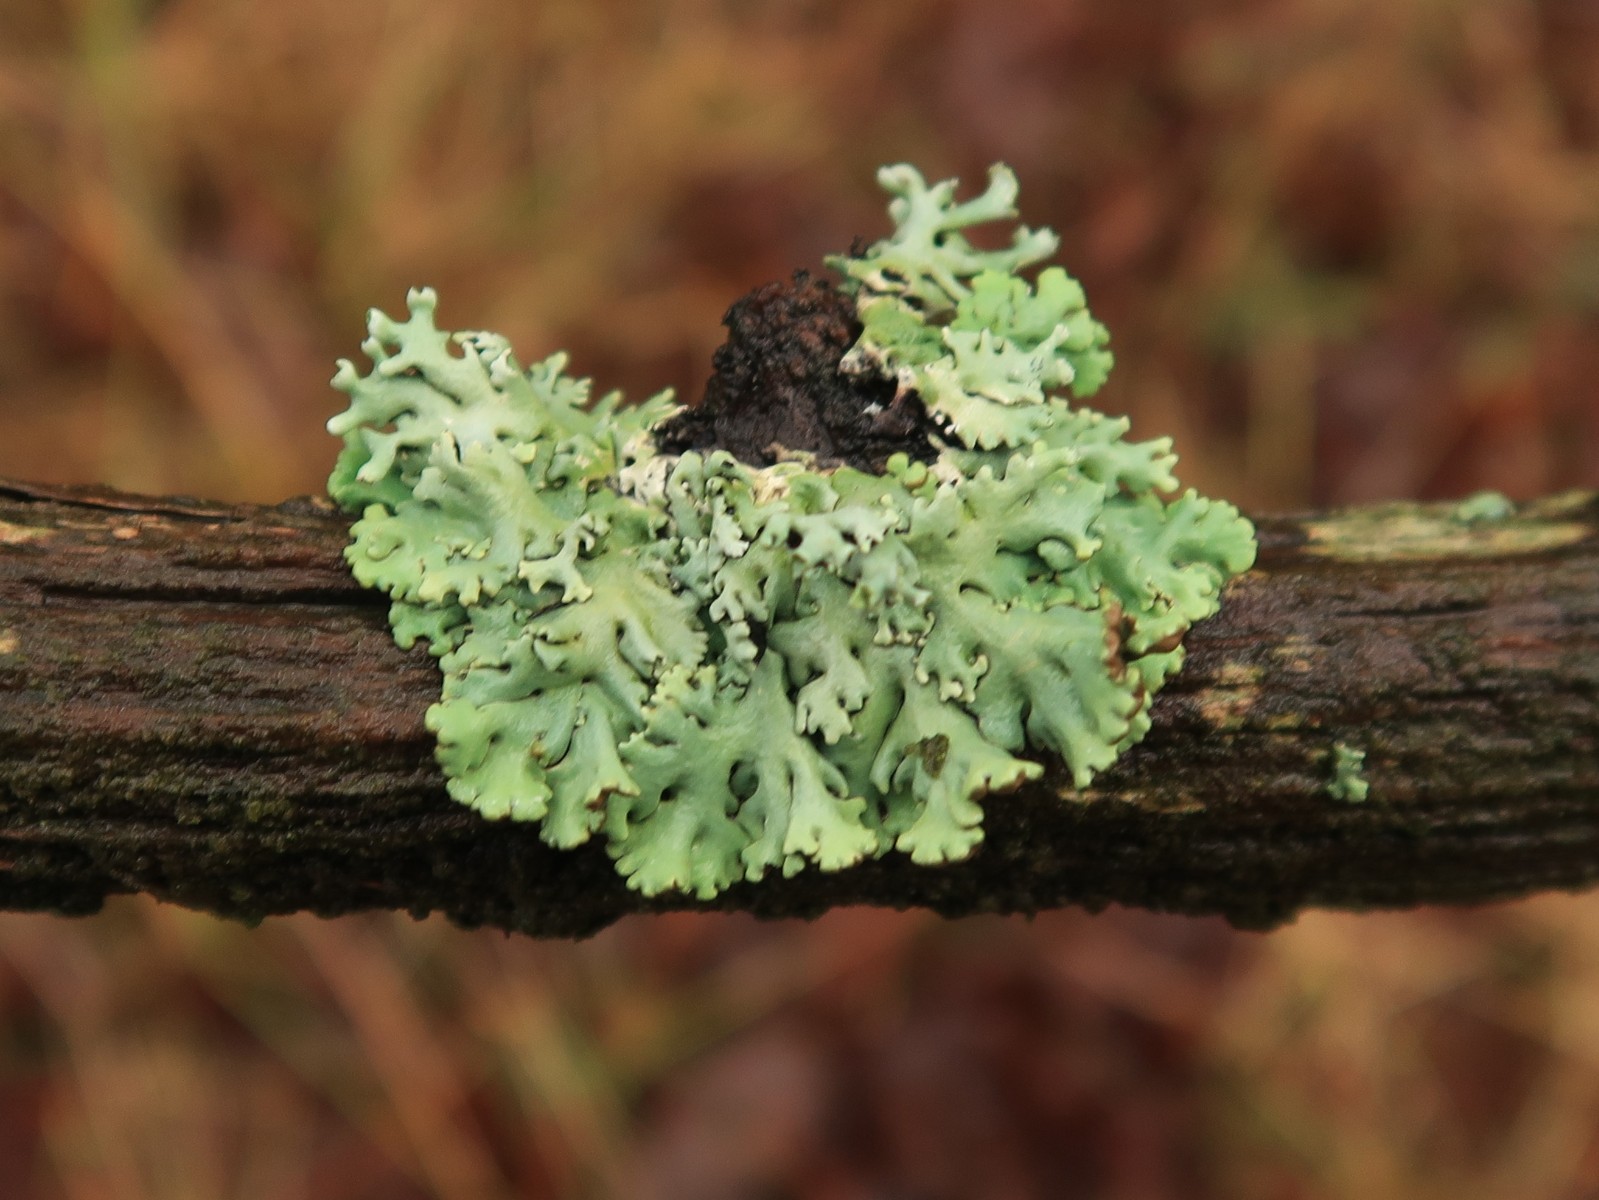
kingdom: Fungi
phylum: Ascomycota
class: Lecanoromycetes
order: Lecanorales
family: Parmeliaceae
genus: Hypogymnia
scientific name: Hypogymnia physodes
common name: almindelig kvistlav
